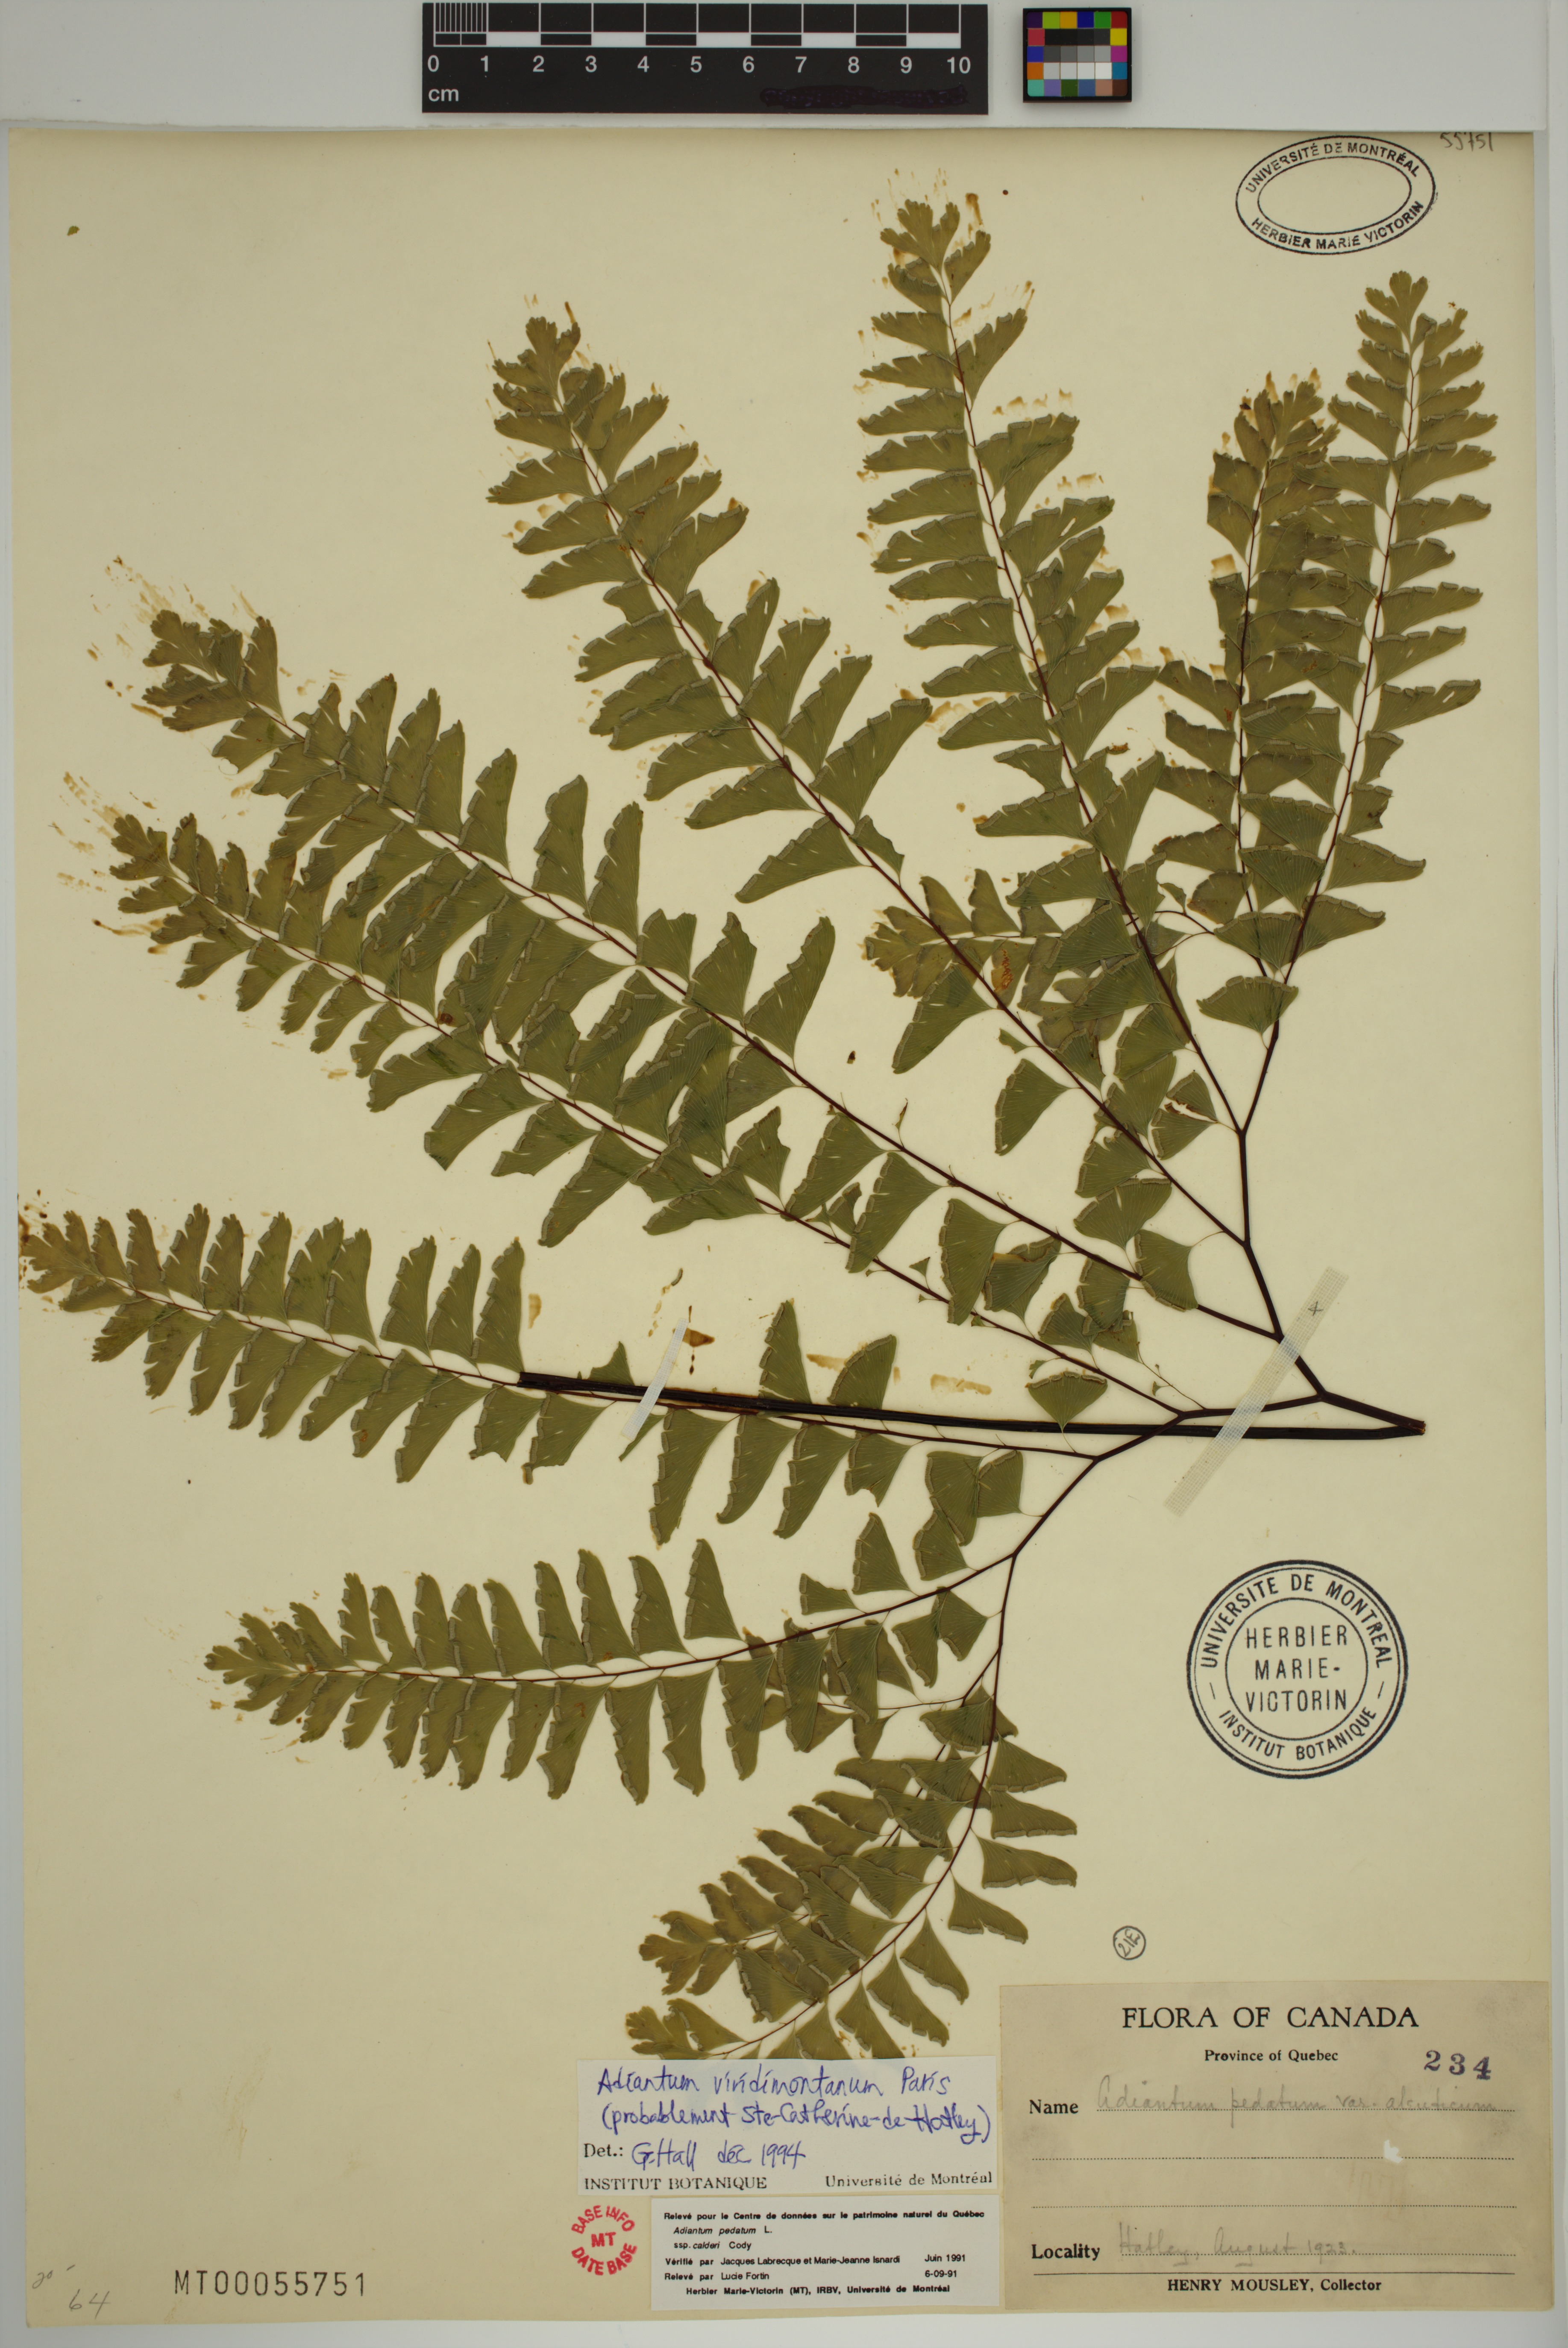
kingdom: Plantae
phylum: Tracheophyta
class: Polypodiopsida
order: Polypodiales
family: Pteridaceae
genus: Adiantum
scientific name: Adiantum viridimontanum
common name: Green mountain maidenhair
